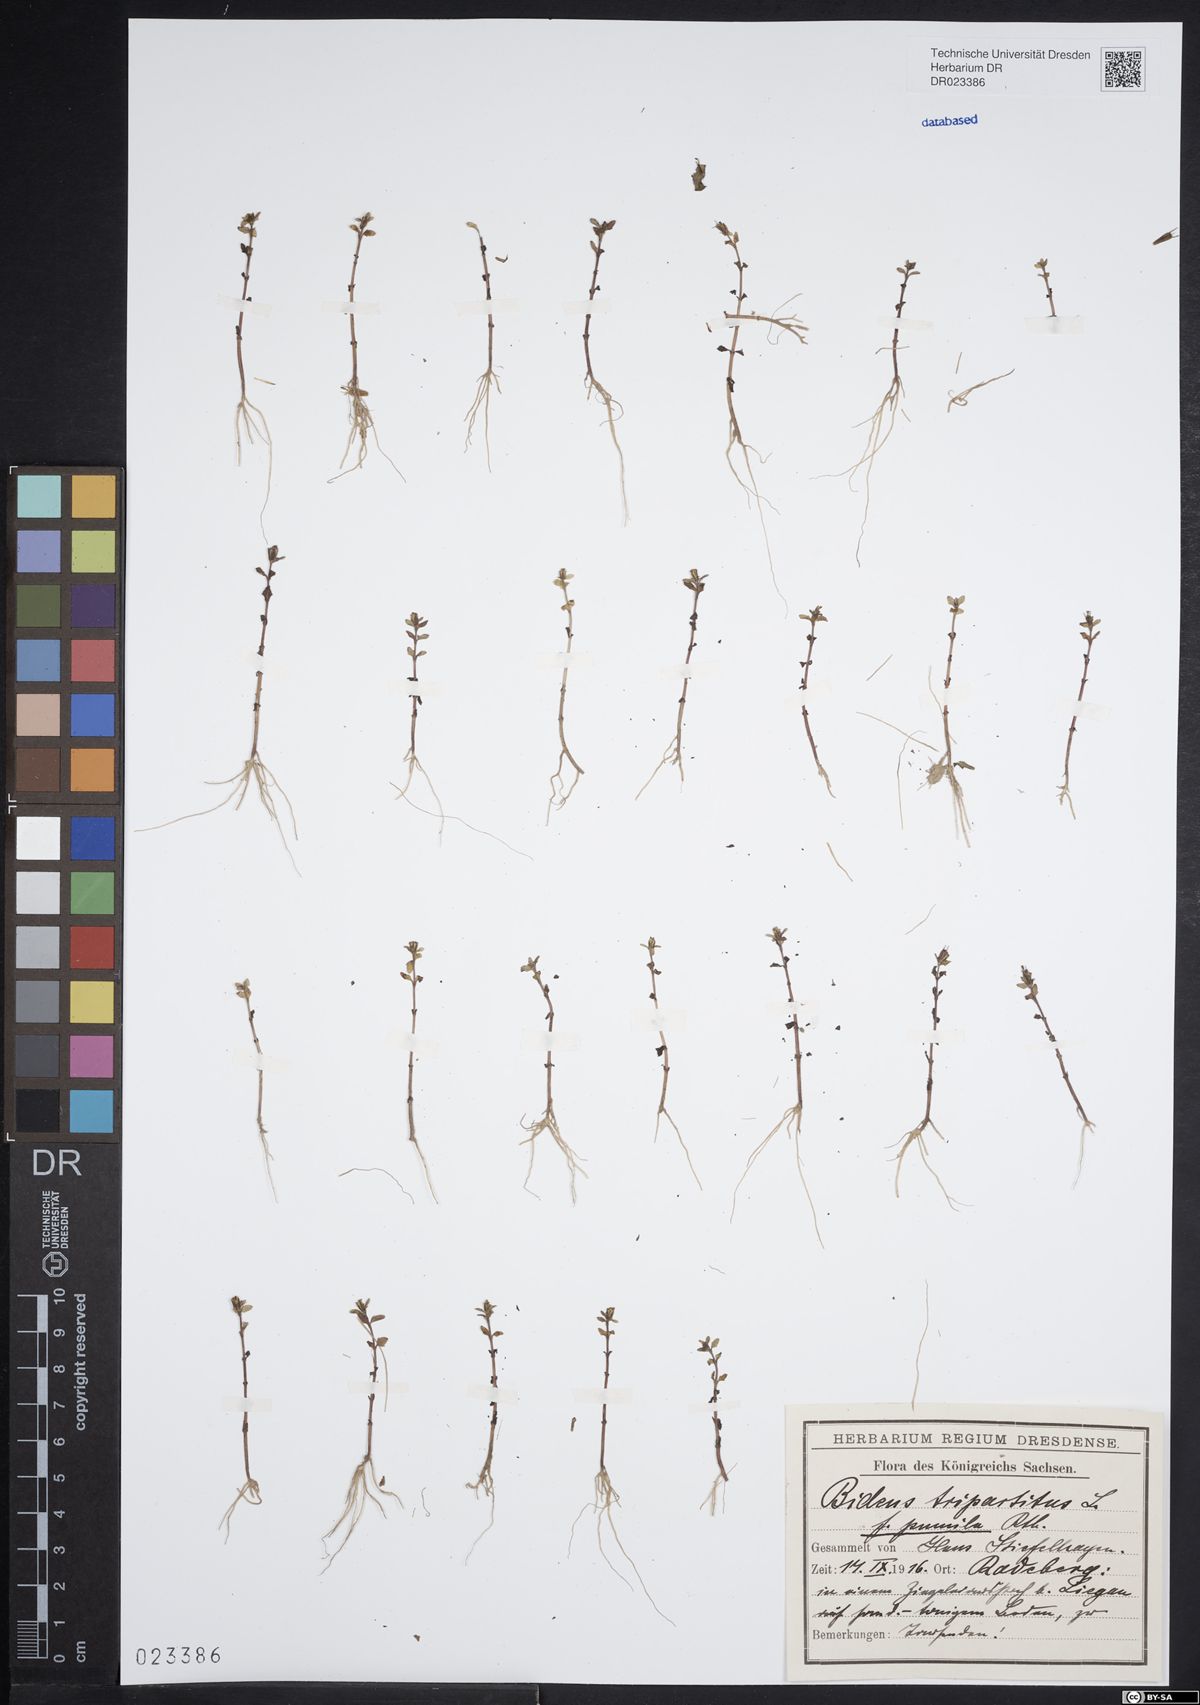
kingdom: Plantae
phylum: Tracheophyta
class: Magnoliopsida
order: Asterales
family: Asteraceae
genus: Bidens
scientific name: Bidens tripartita
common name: Trifid bur-marigold
